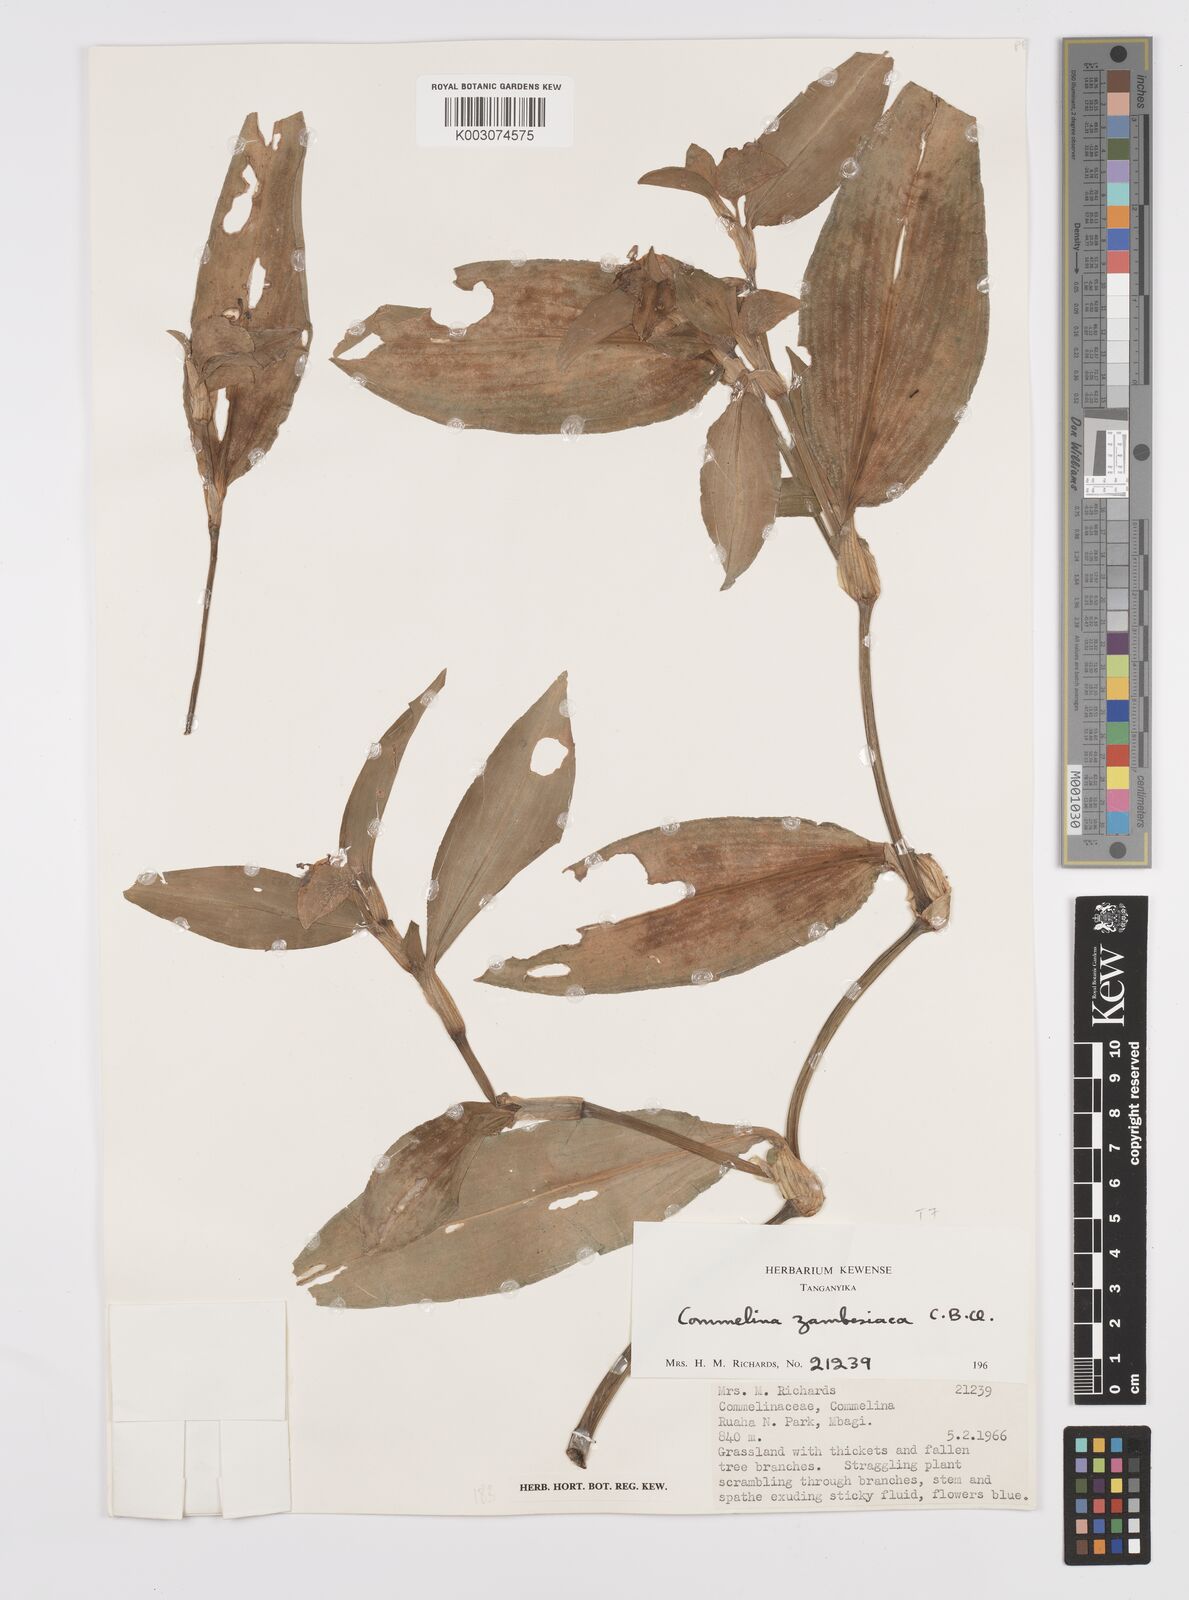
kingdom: Plantae
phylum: Tracheophyta
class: Liliopsida
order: Commelinales
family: Commelinaceae
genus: Commelina
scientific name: Commelina zambesica
